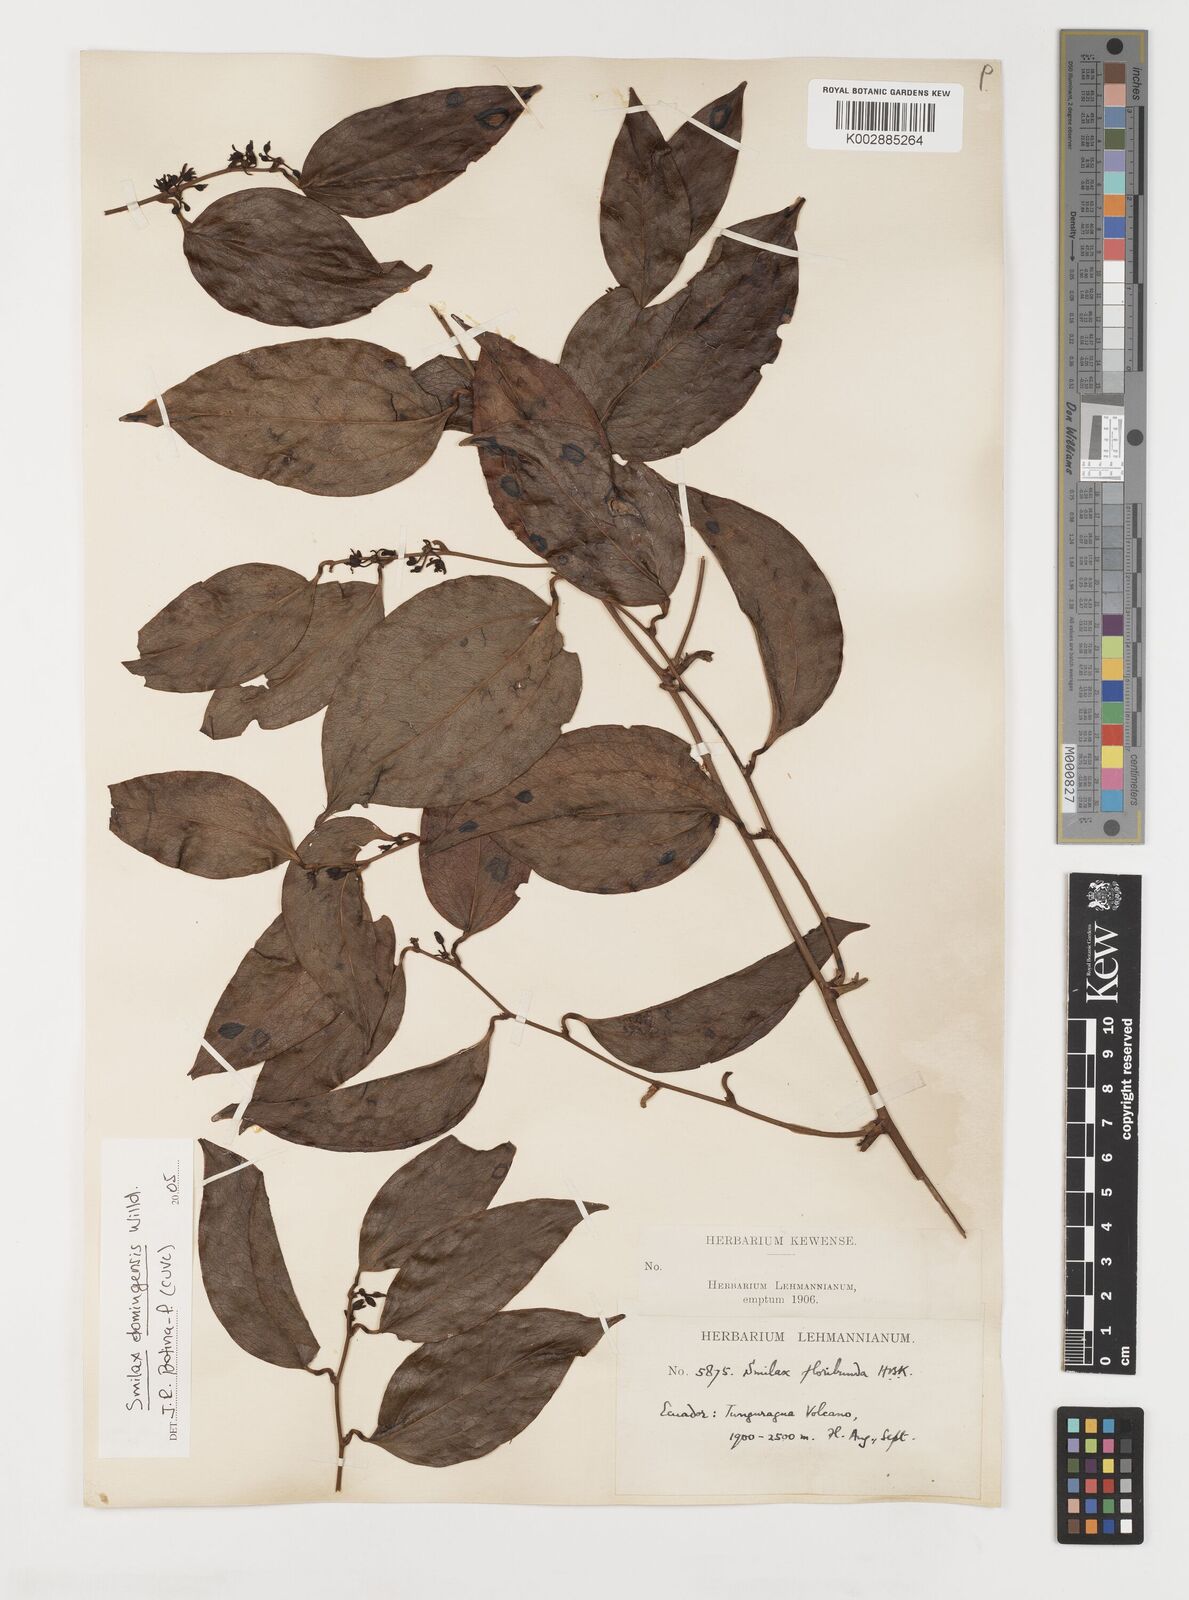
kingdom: Plantae
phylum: Tracheophyta
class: Liliopsida
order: Liliales
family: Smilacaceae
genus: Smilax
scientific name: Smilax domingensis
